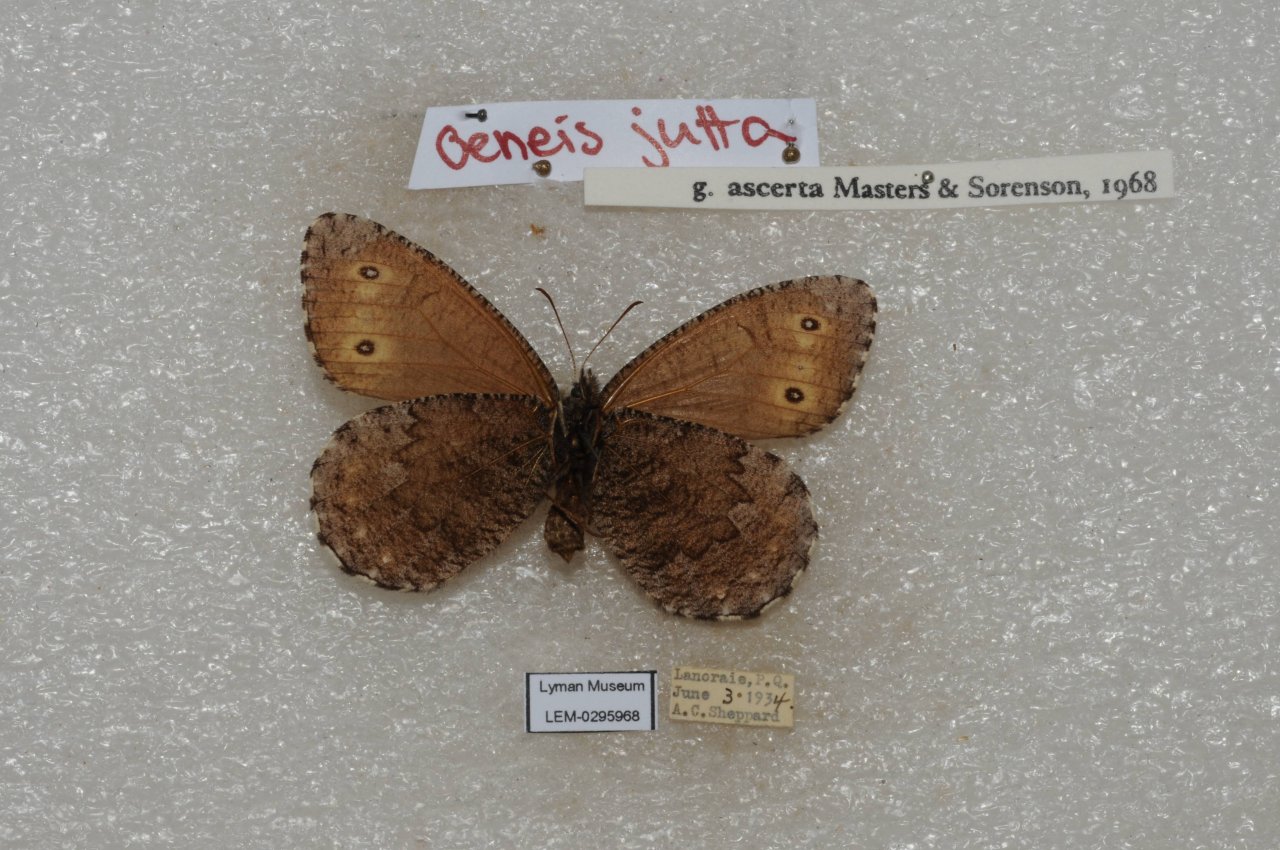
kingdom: Animalia
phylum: Arthropoda
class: Insecta
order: Lepidoptera
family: Nymphalidae
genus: Oeneis
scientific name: Oeneis jutta
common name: Jutta Arctic
